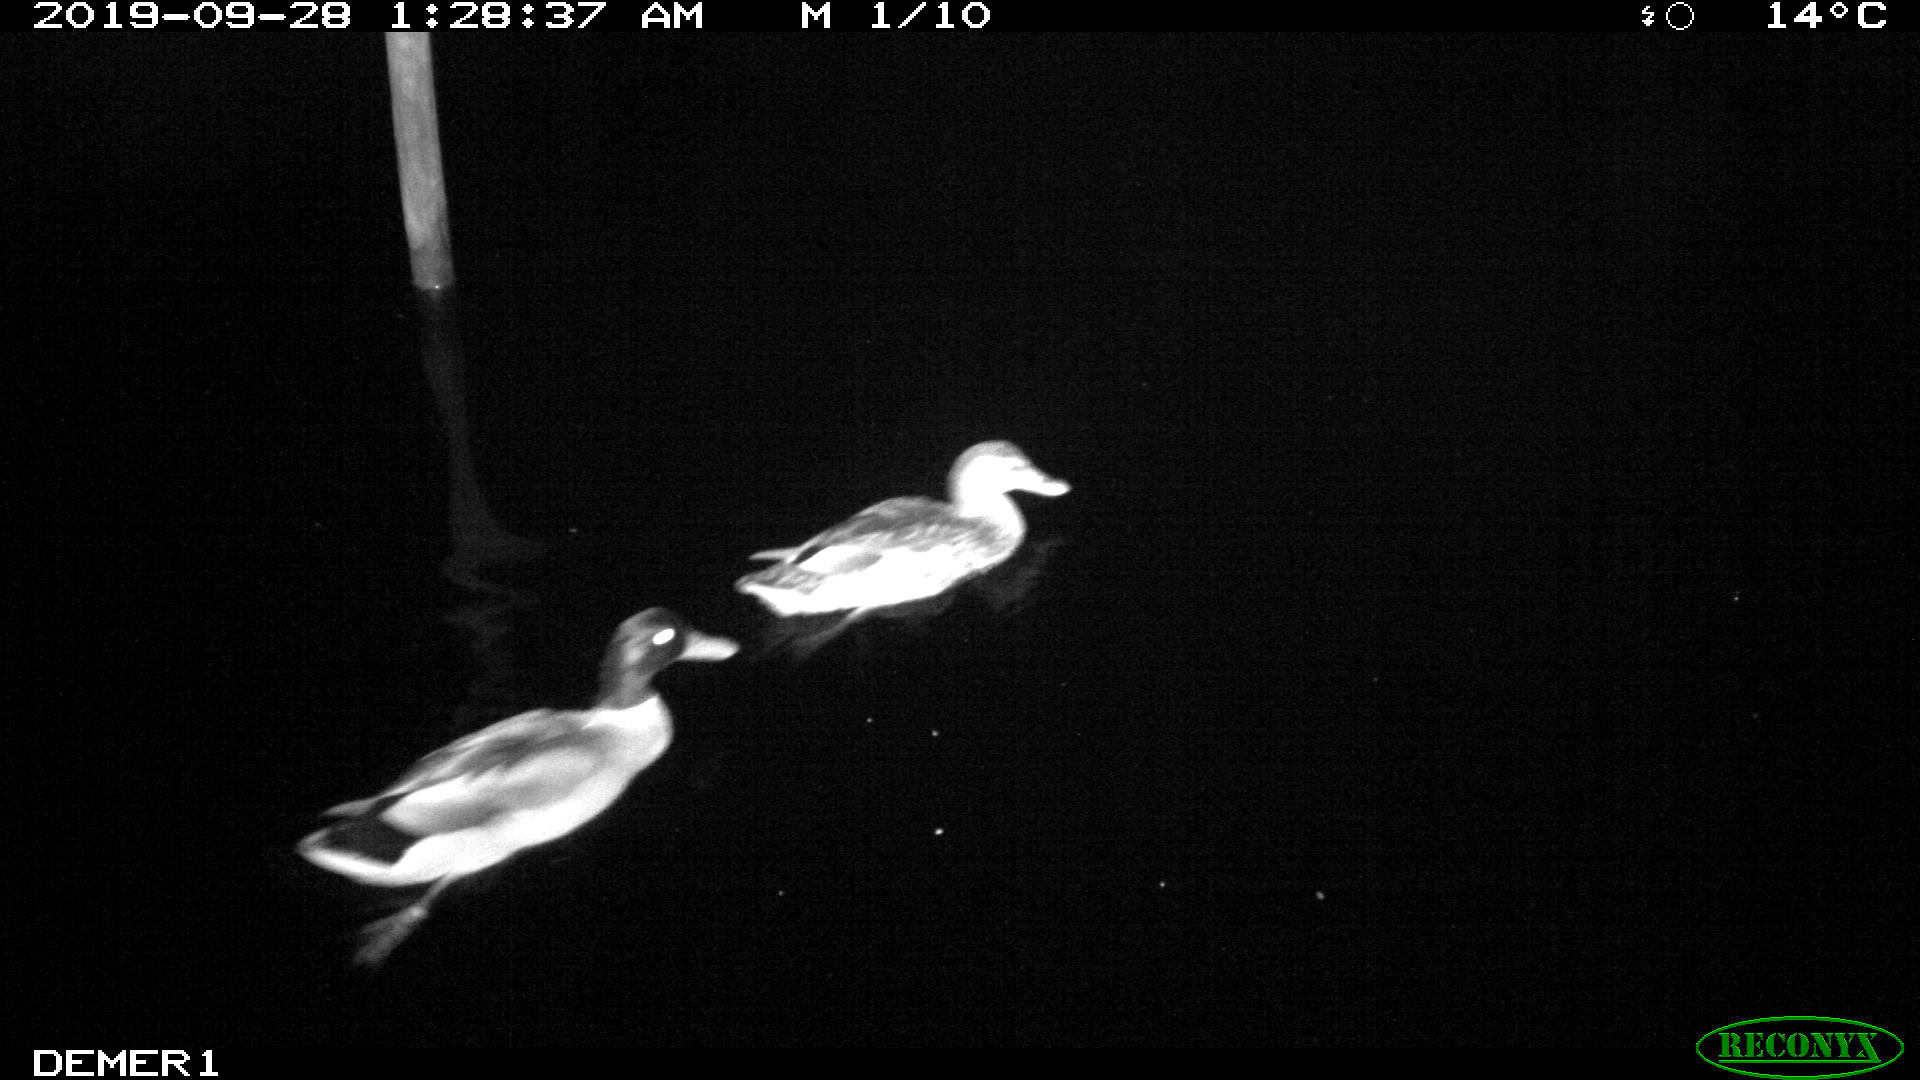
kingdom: Animalia
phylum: Chordata
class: Aves
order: Anseriformes
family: Anatidae
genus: Anas
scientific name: Anas platyrhynchos
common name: Mallard
